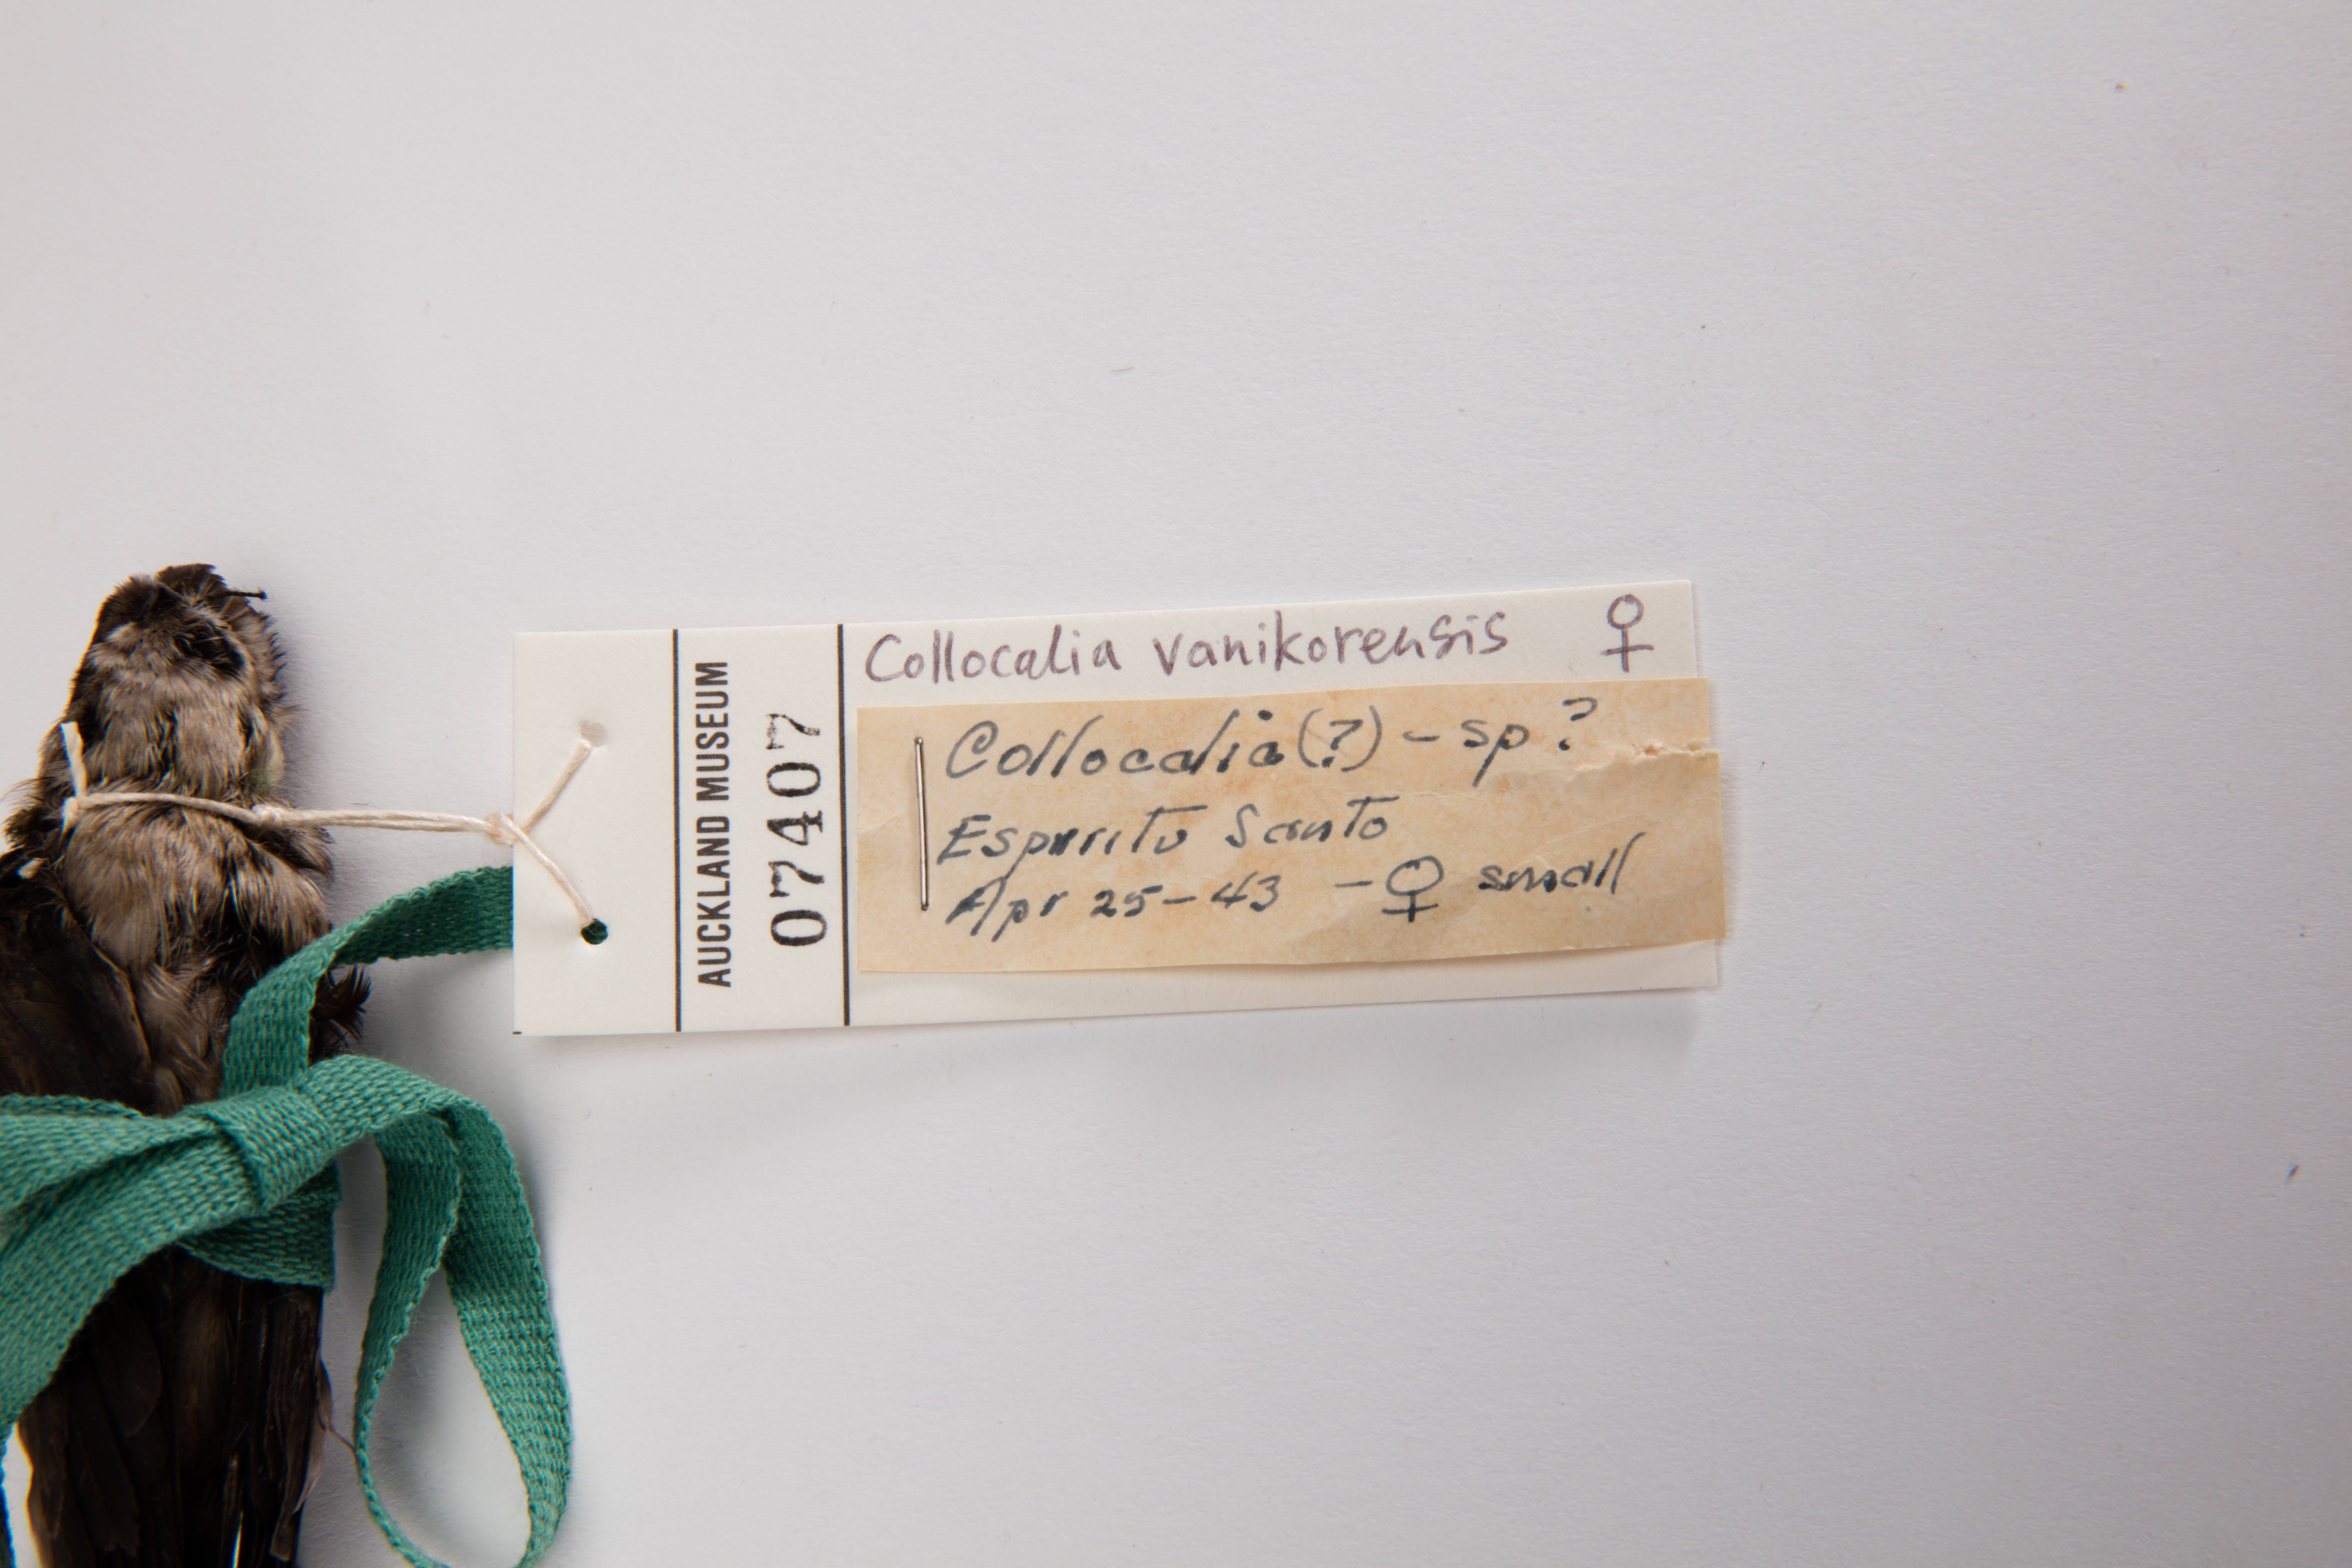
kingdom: Animalia
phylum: Chordata
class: Aves
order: Apodiformes
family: Apodidae
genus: Aerodramus
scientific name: Aerodramus vanikorensis
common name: Uniform swiftlet
